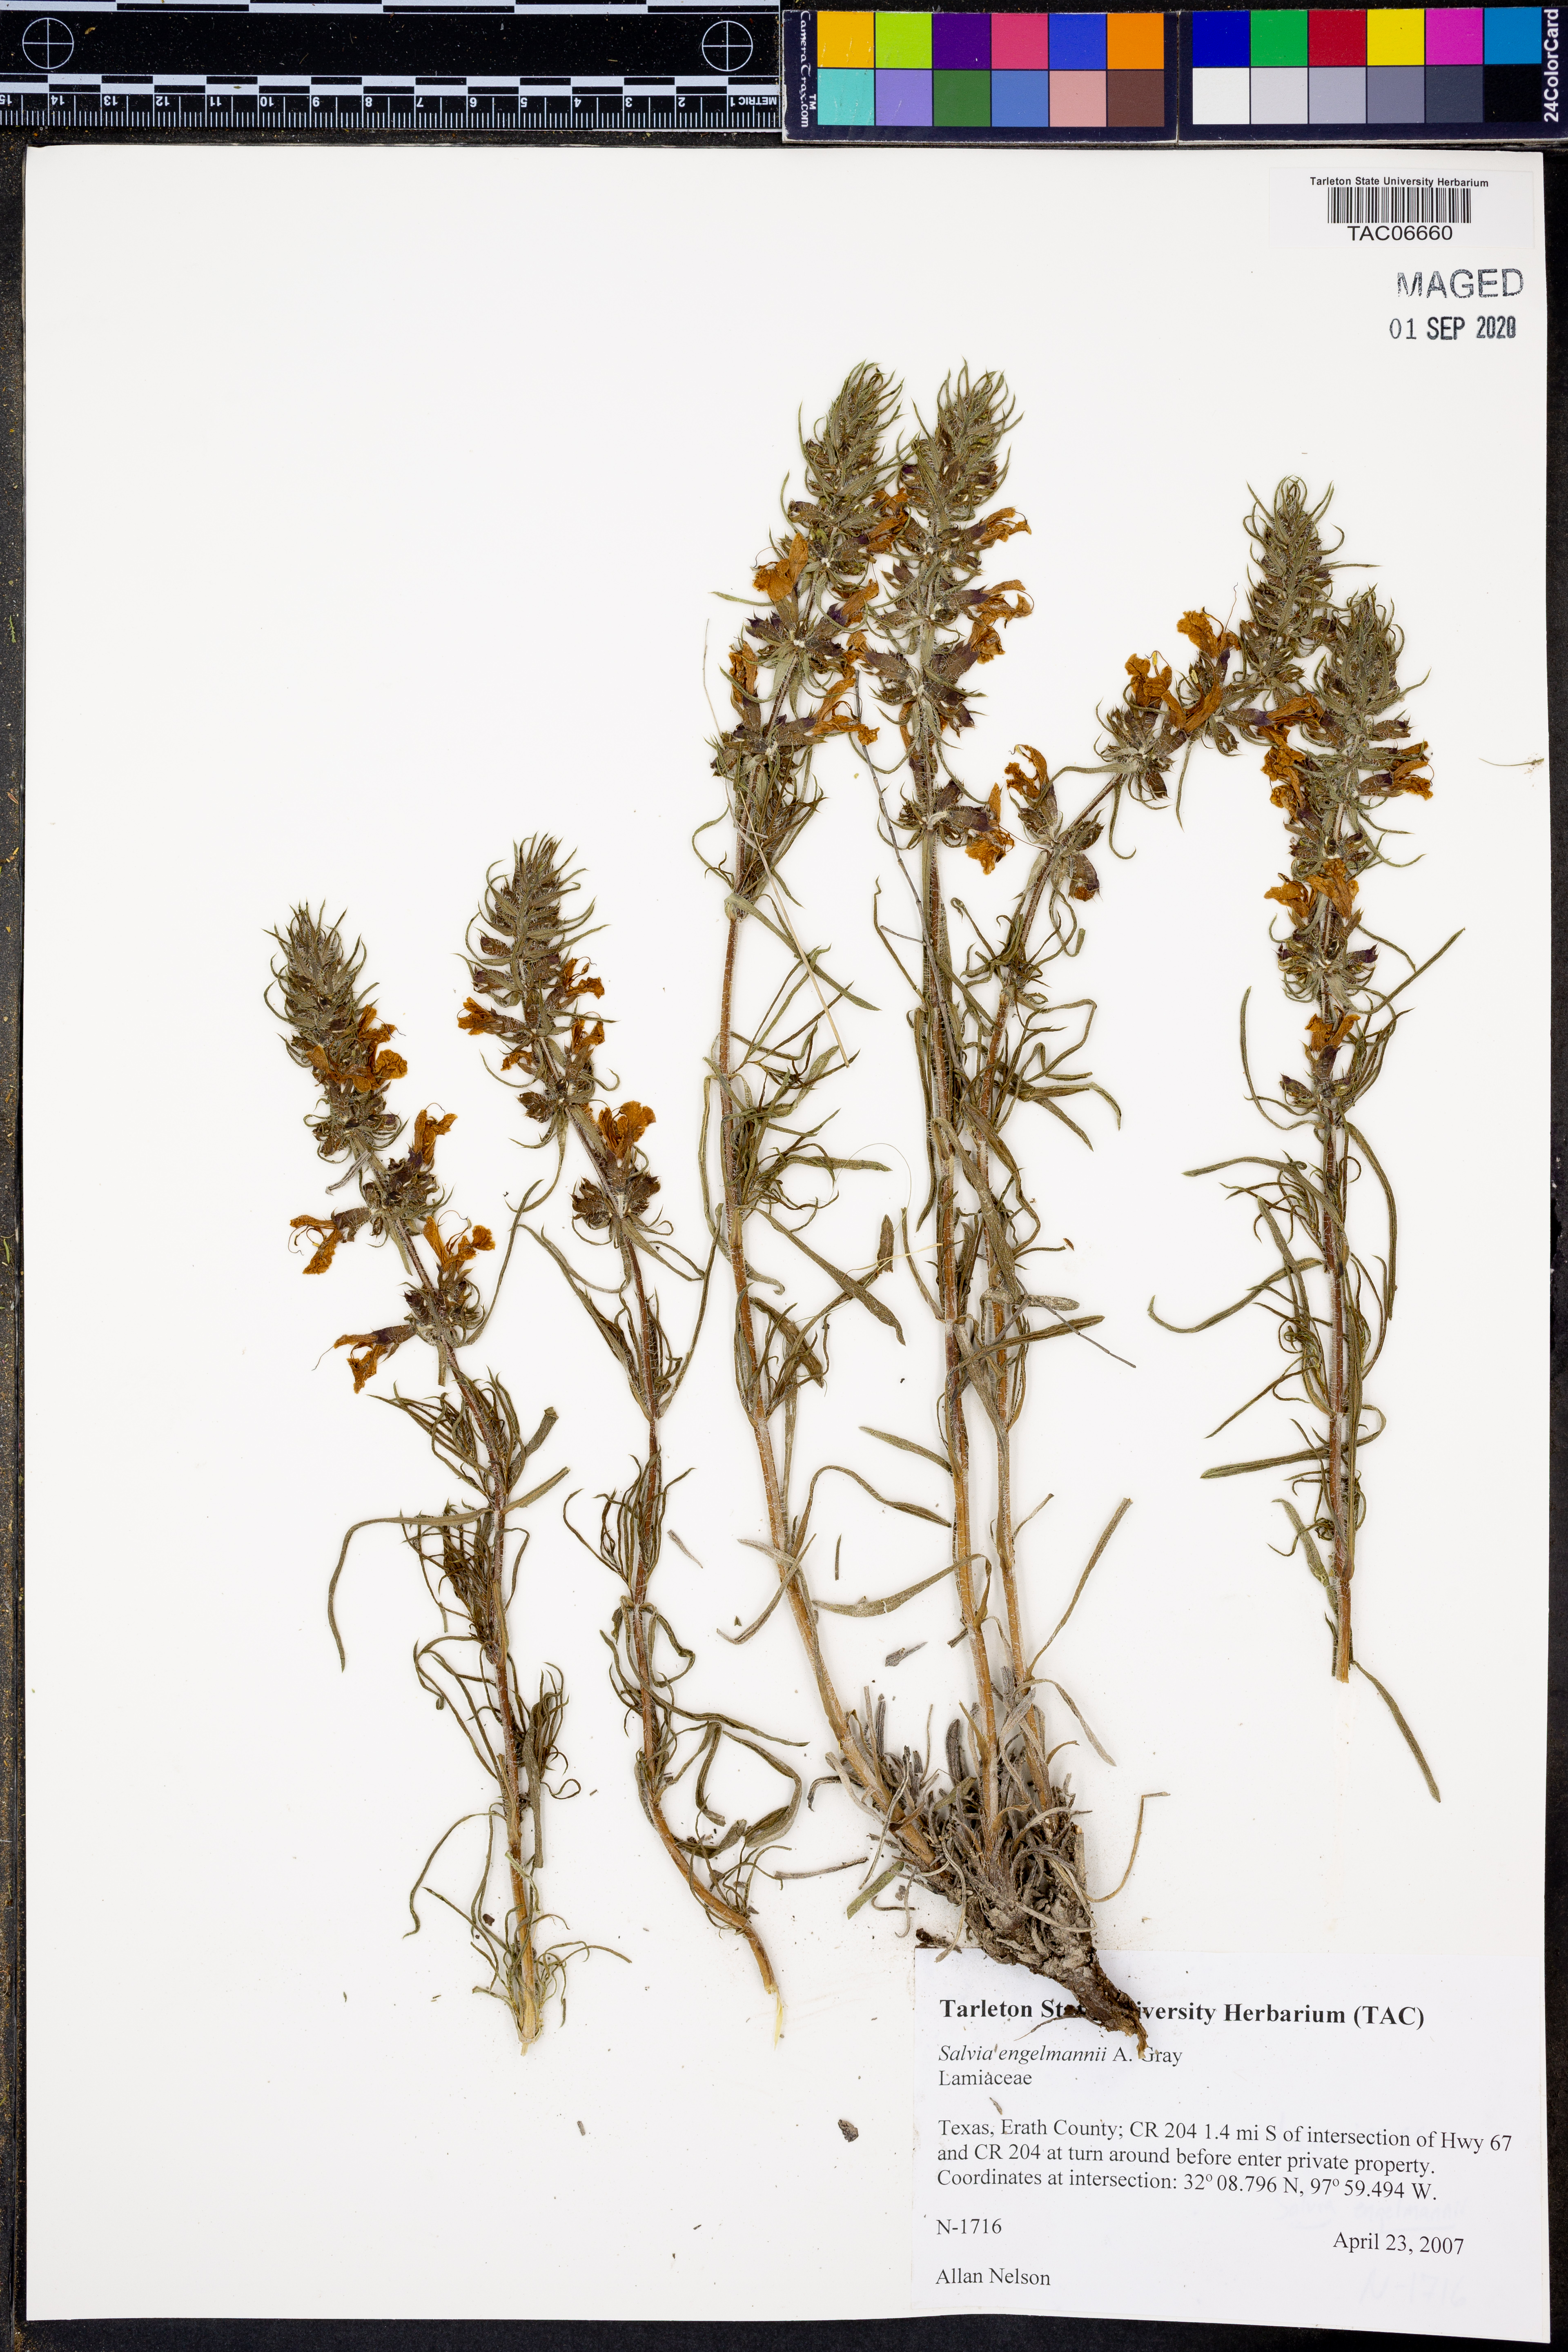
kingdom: Plantae
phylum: Tracheophyta
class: Magnoliopsida
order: Lamiales
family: Lamiaceae
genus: Salvia
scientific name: Salvia engelmannii
